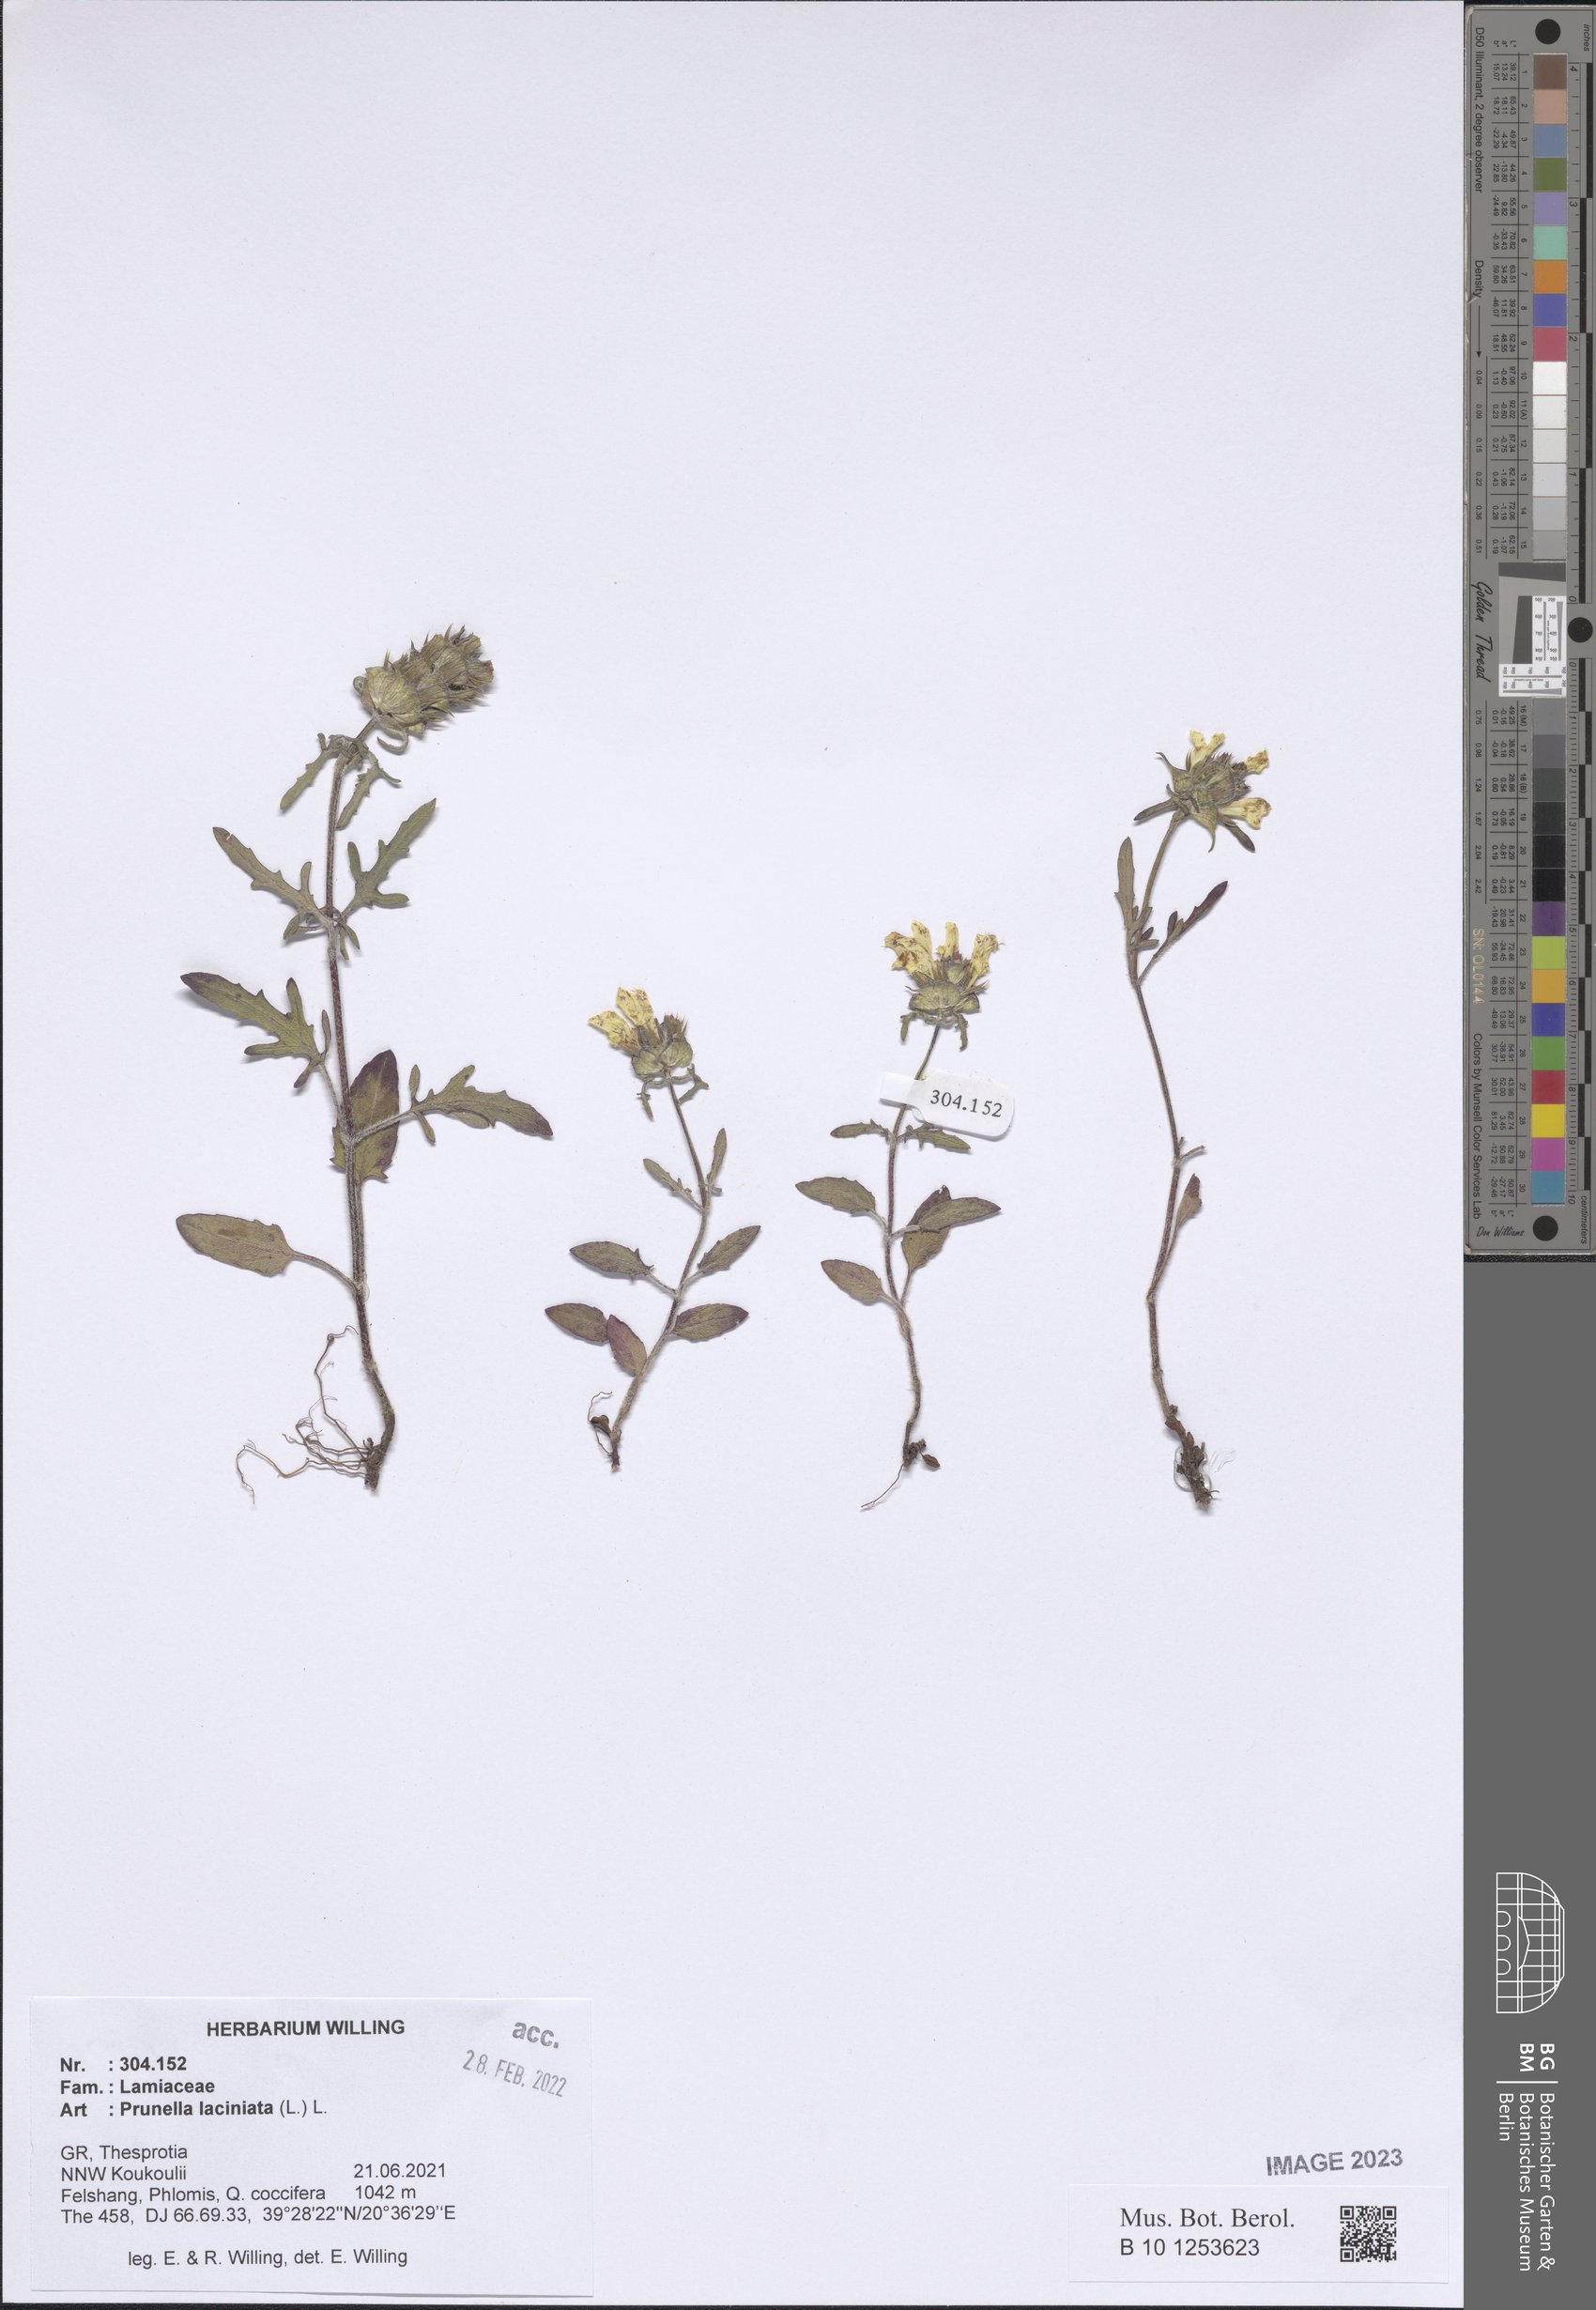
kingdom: Plantae
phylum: Tracheophyta
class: Magnoliopsida
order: Lamiales
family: Lamiaceae
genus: Prunella
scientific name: Prunella laciniata
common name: Cut-leaved selfheal
